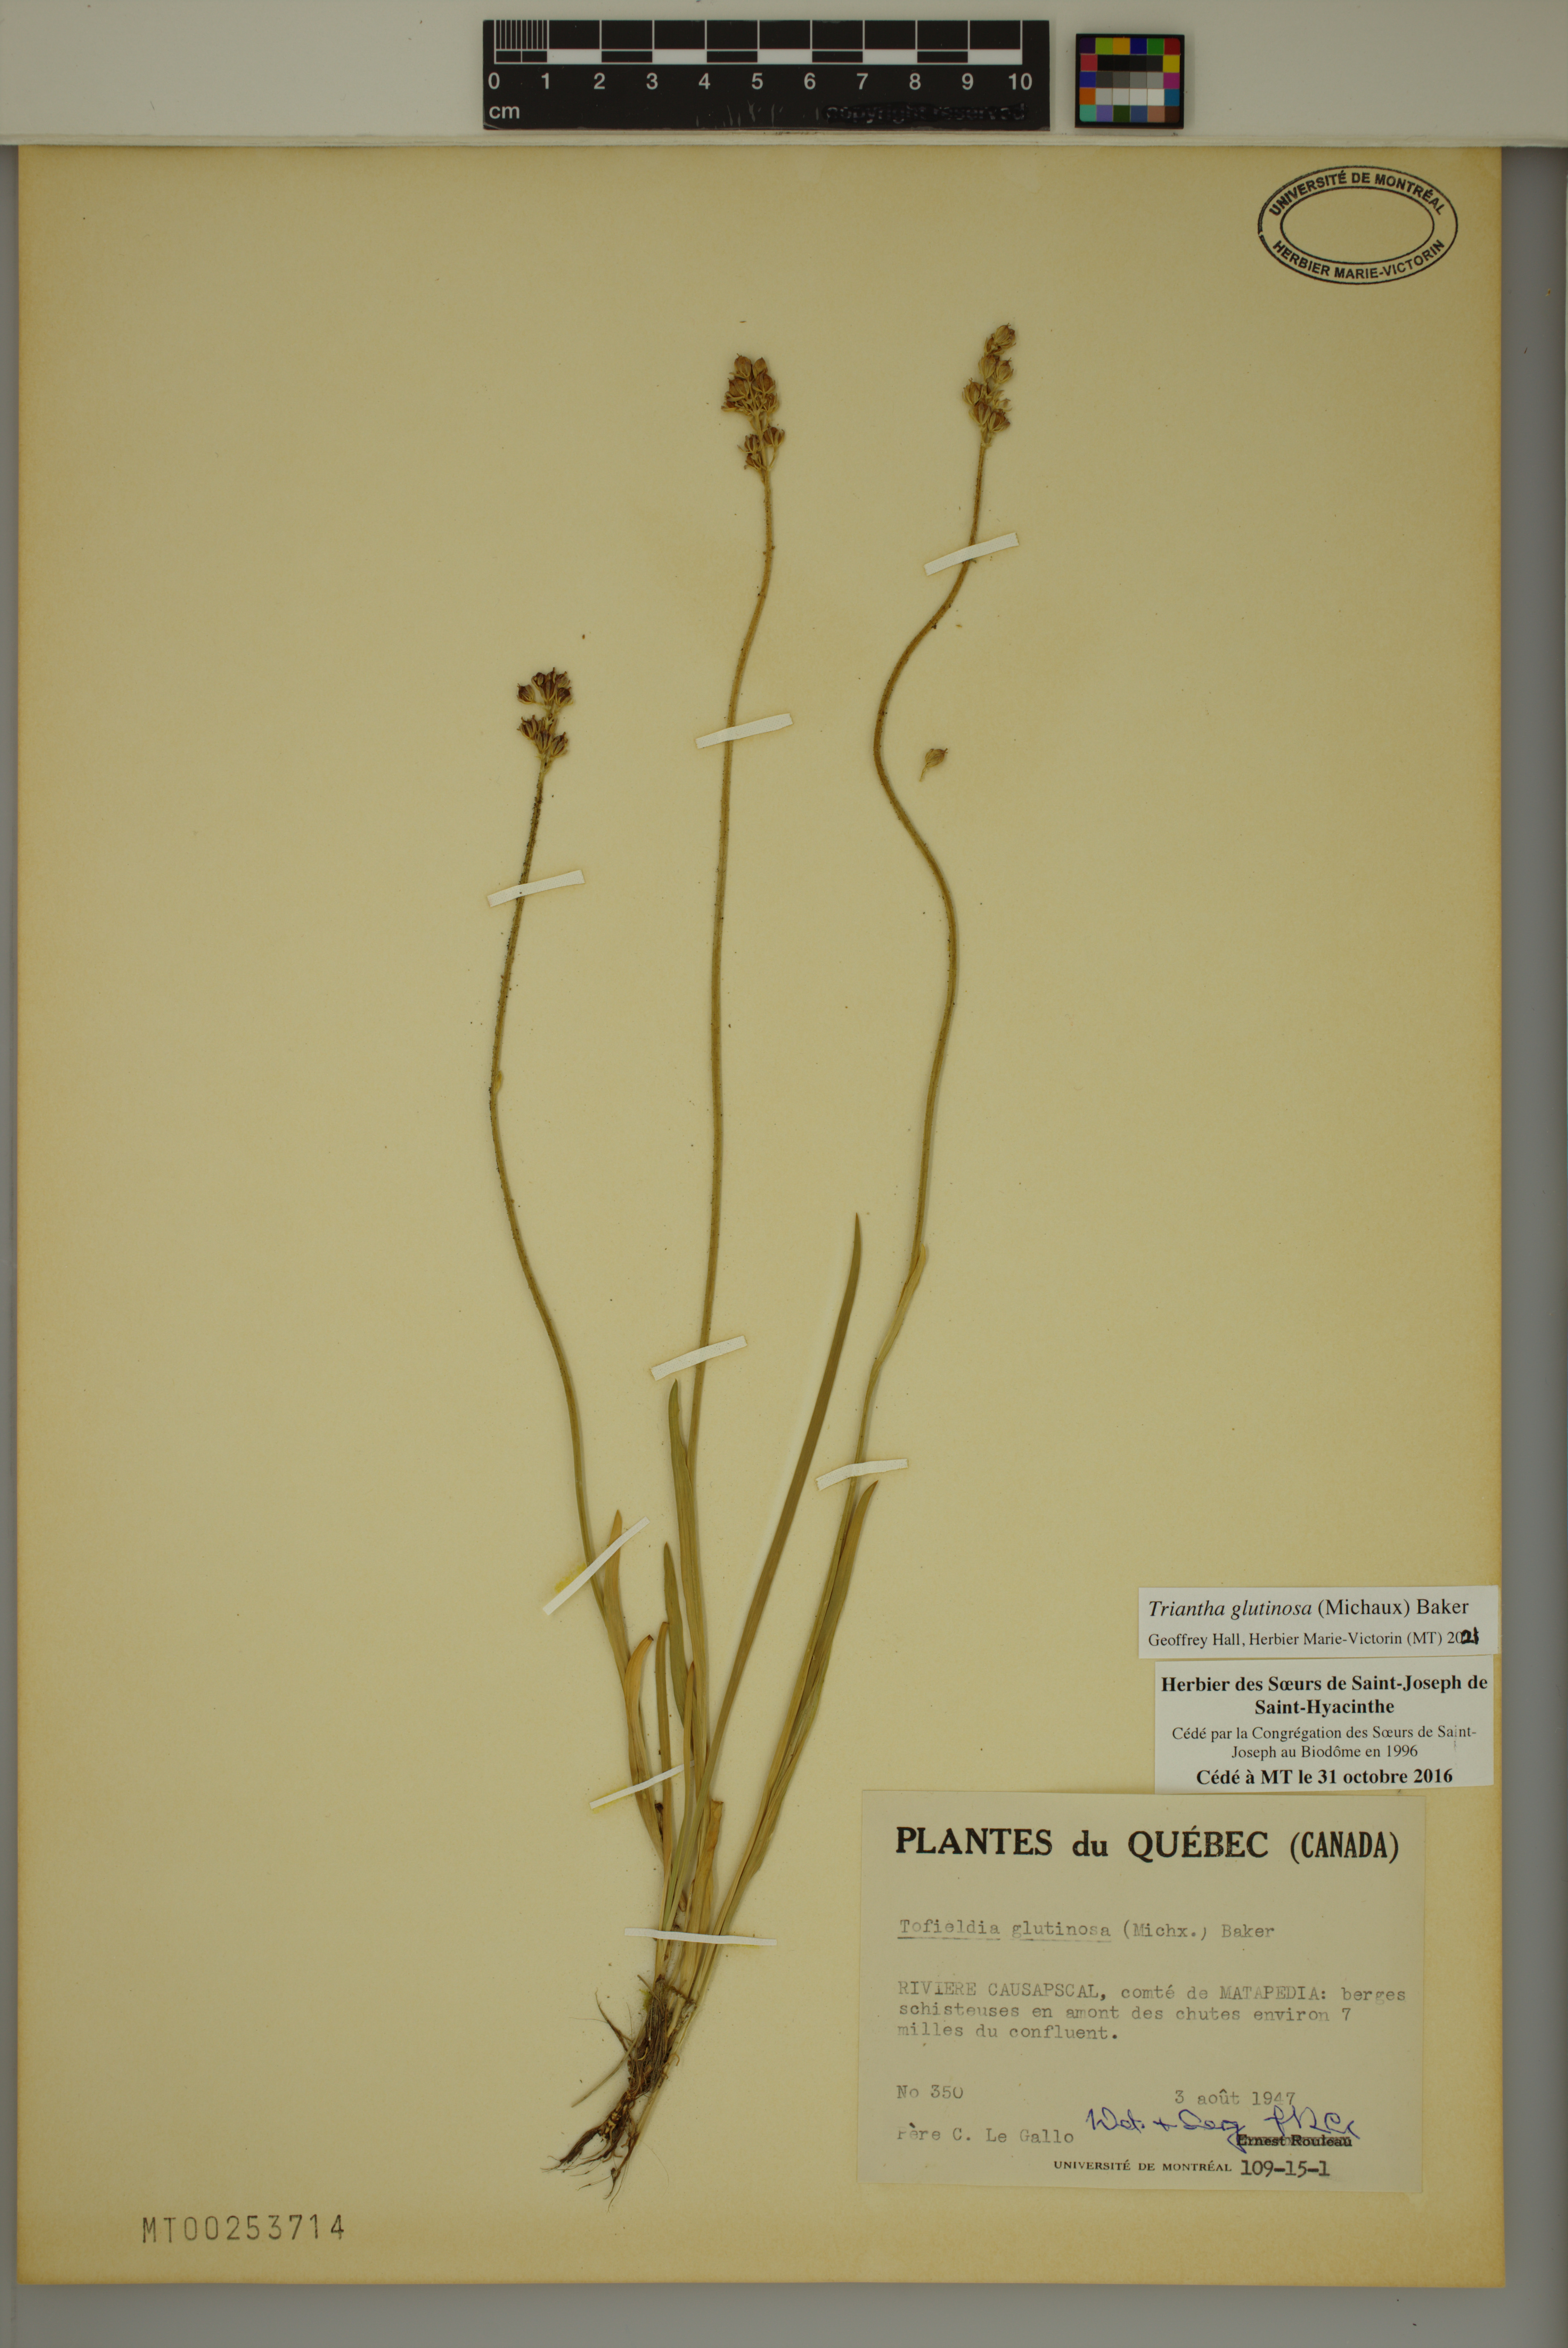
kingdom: Plantae
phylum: Tracheophyta
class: Liliopsida
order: Alismatales
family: Tofieldiaceae
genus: Triantha
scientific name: Triantha glutinosa
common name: Glutinous tofieldia
